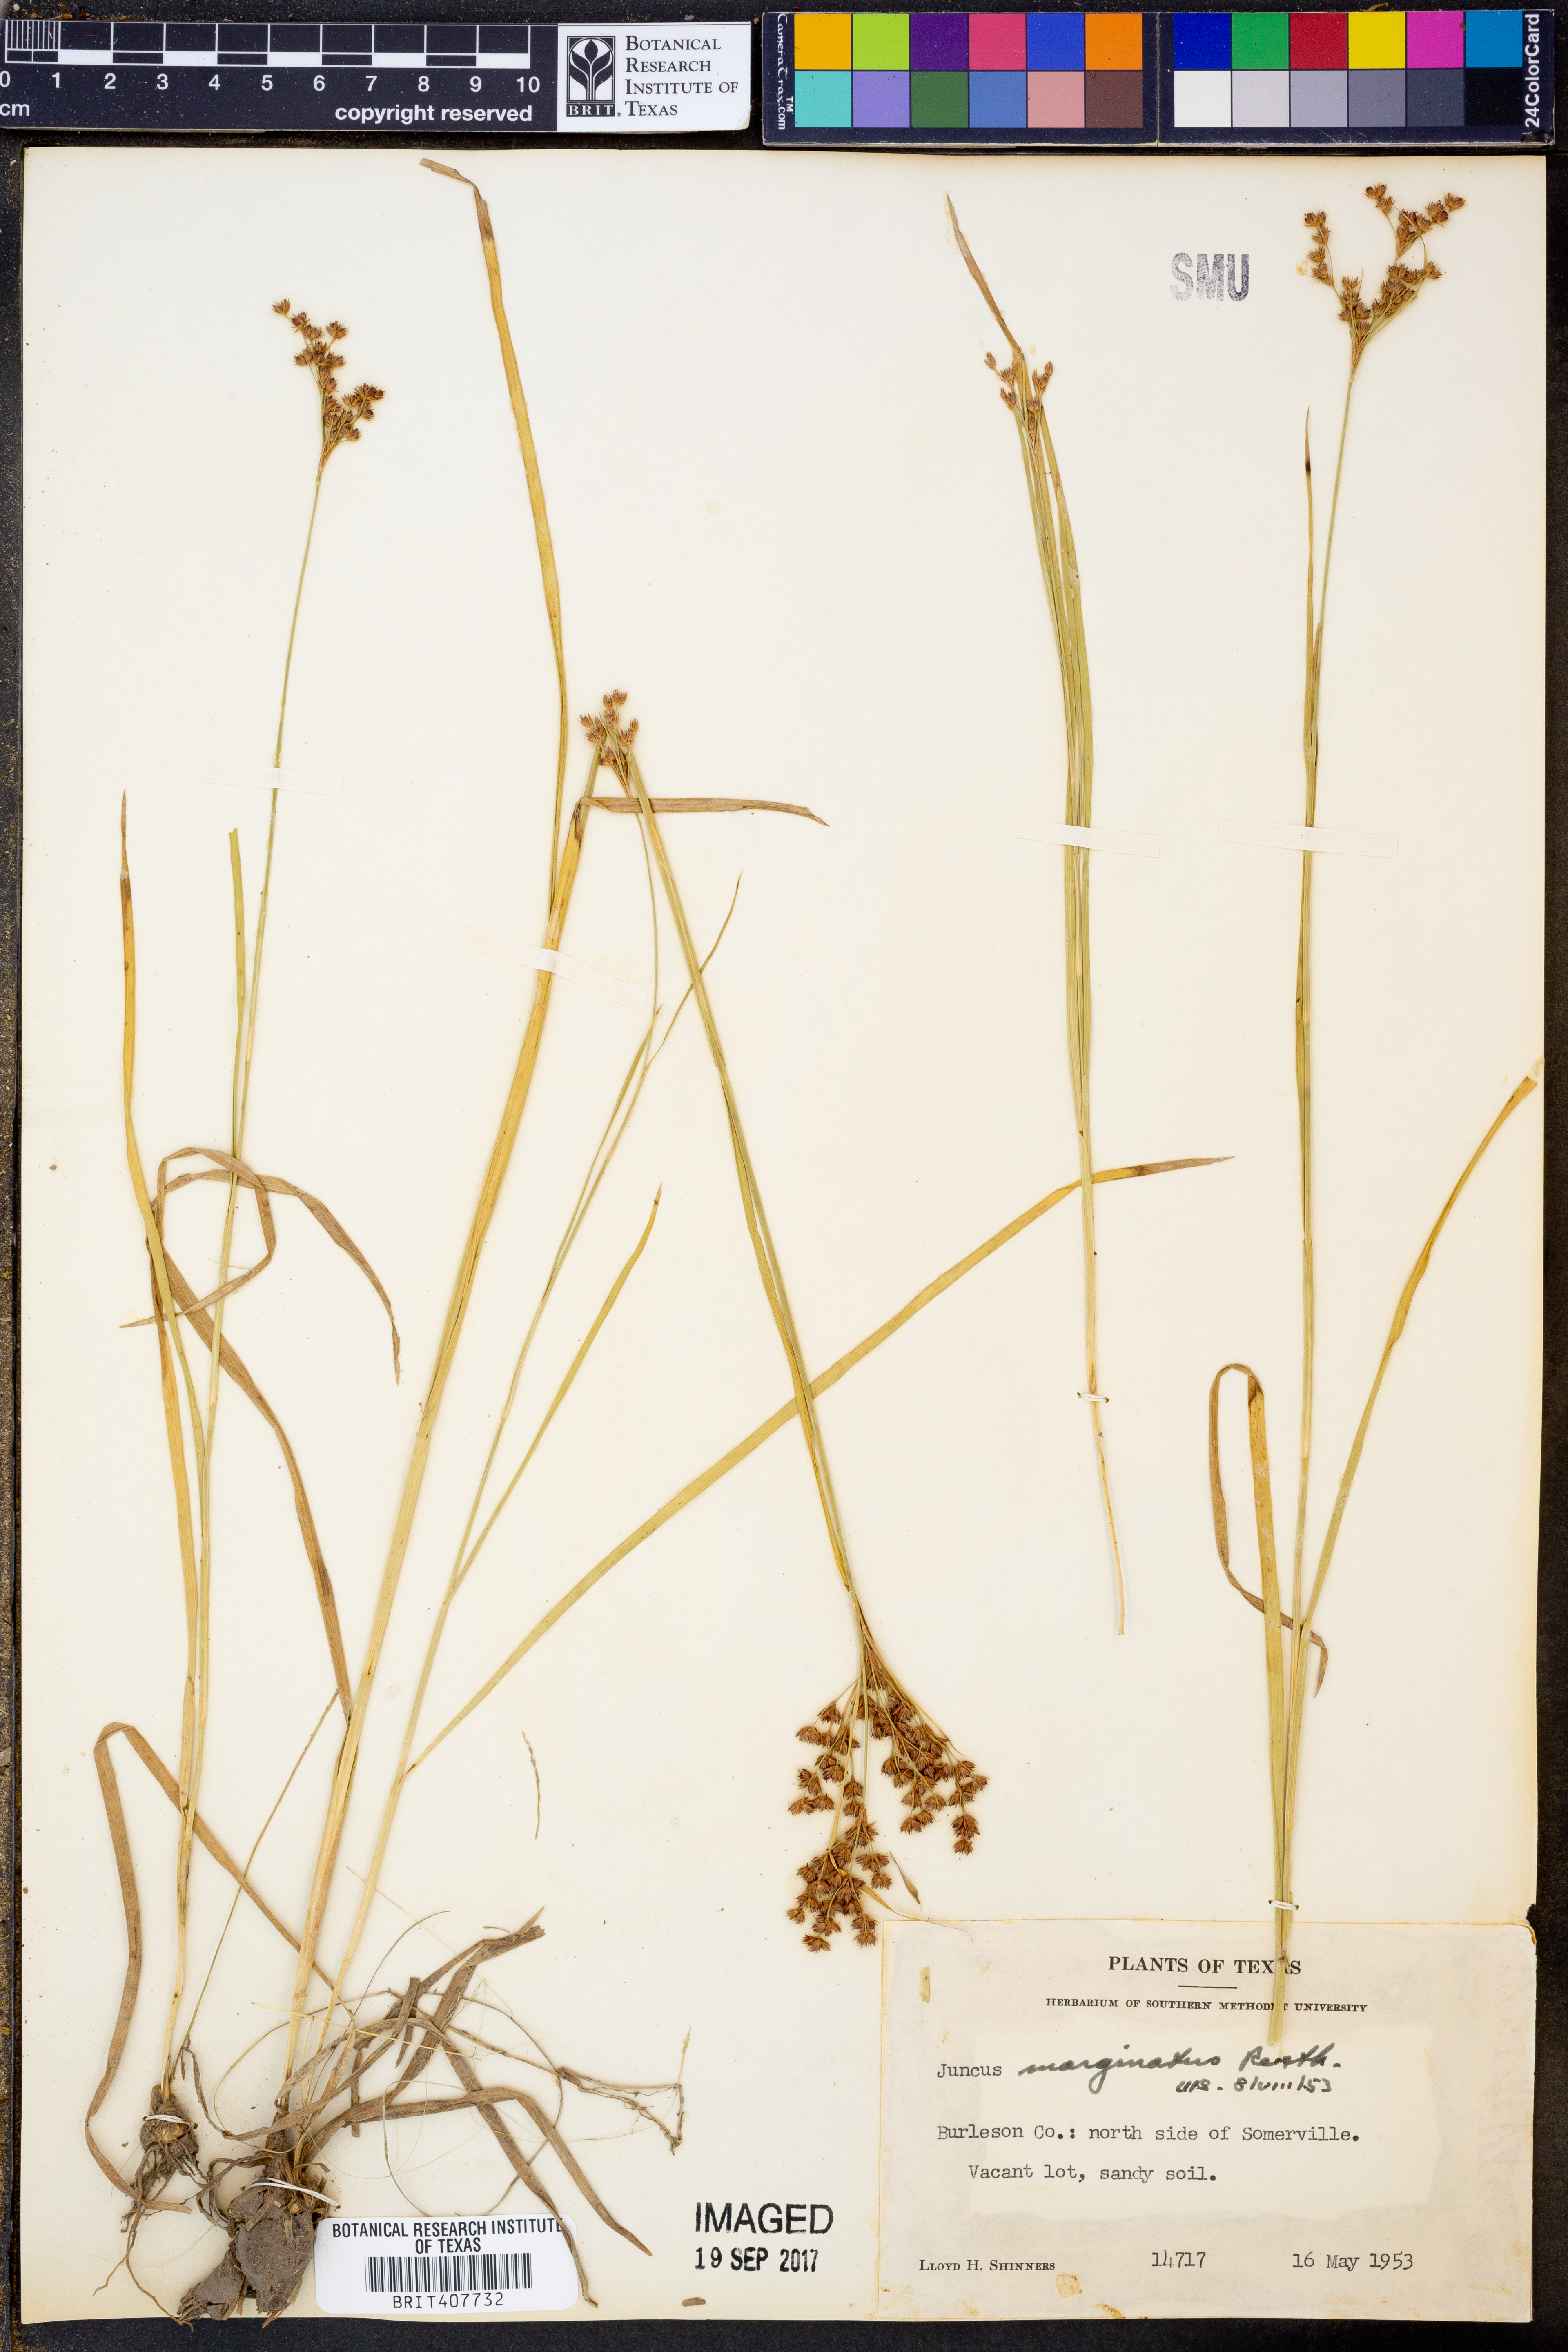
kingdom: Plantae
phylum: Tracheophyta
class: Liliopsida
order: Poales
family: Juncaceae
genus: Juncus
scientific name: Juncus marginatus
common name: Grass-leaf rush
